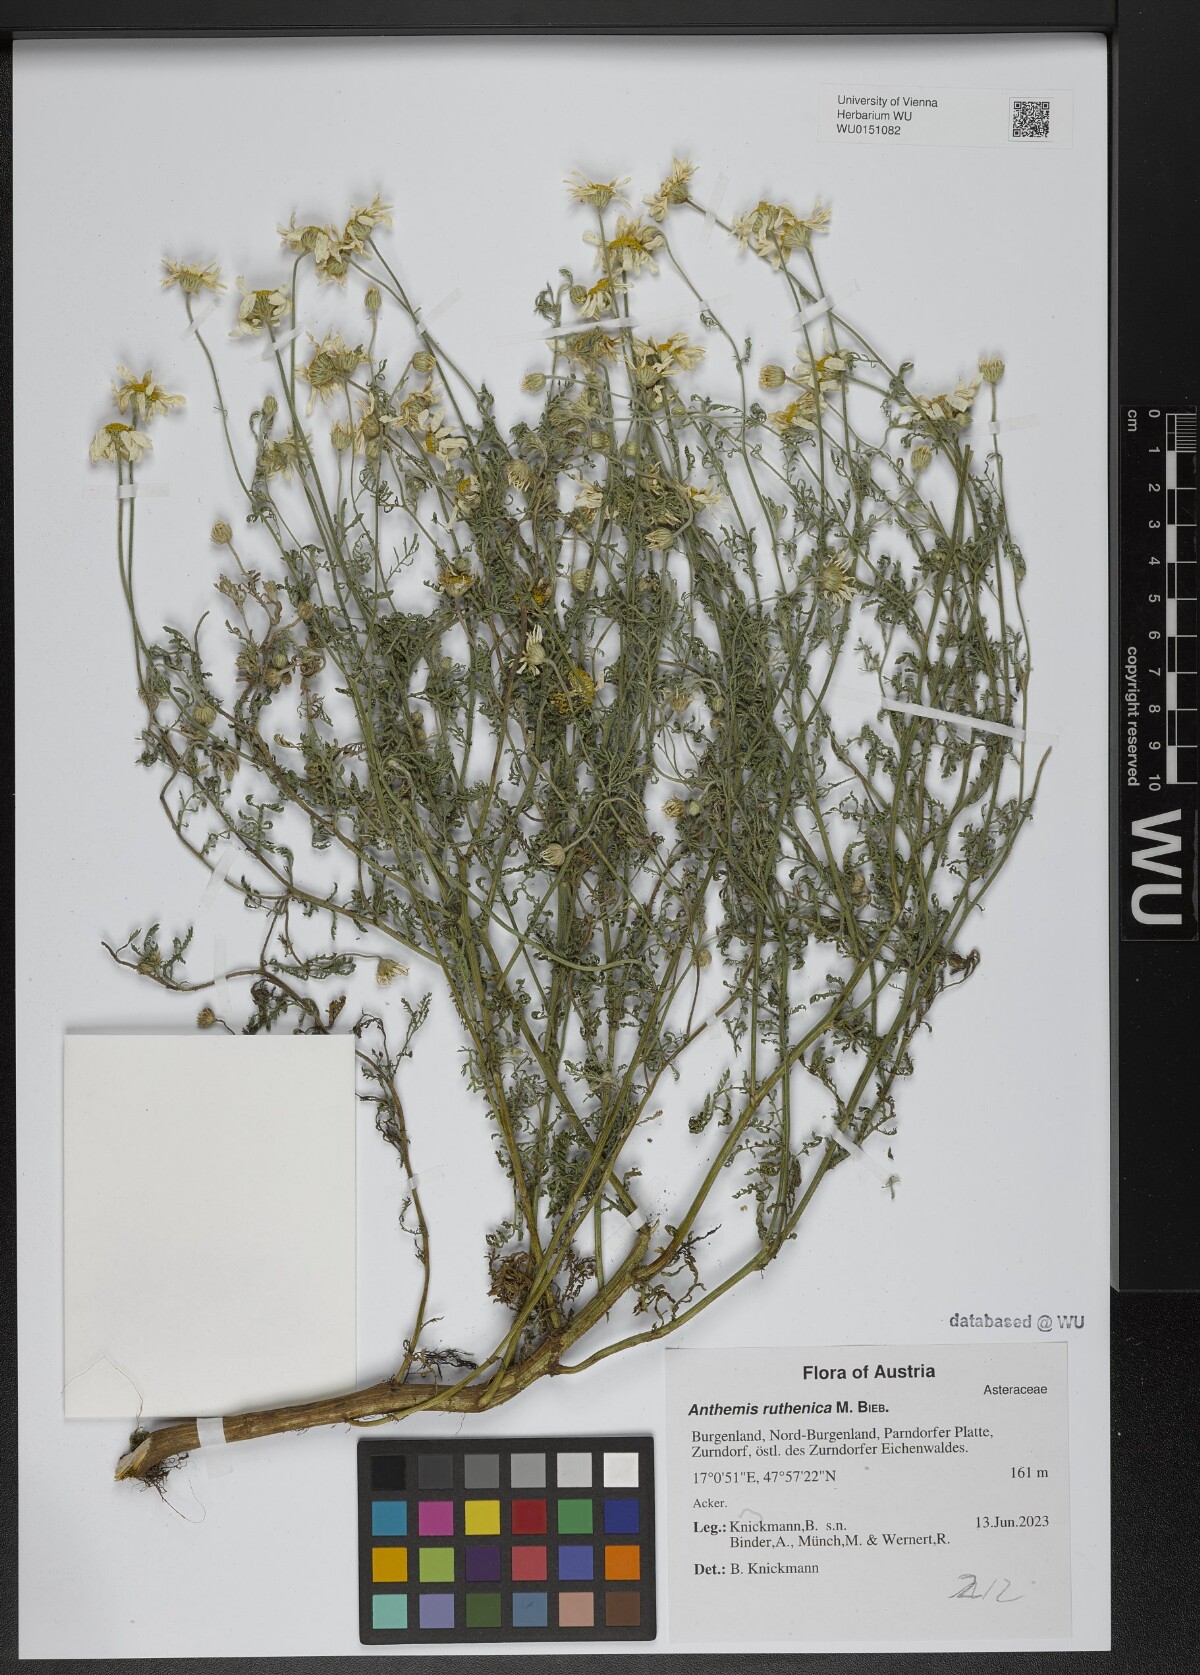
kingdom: Plantae
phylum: Tracheophyta
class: Magnoliopsida
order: Asterales
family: Asteraceae
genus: Anthemis
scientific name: Anthemis ruthenica
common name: Eastern chamomile
